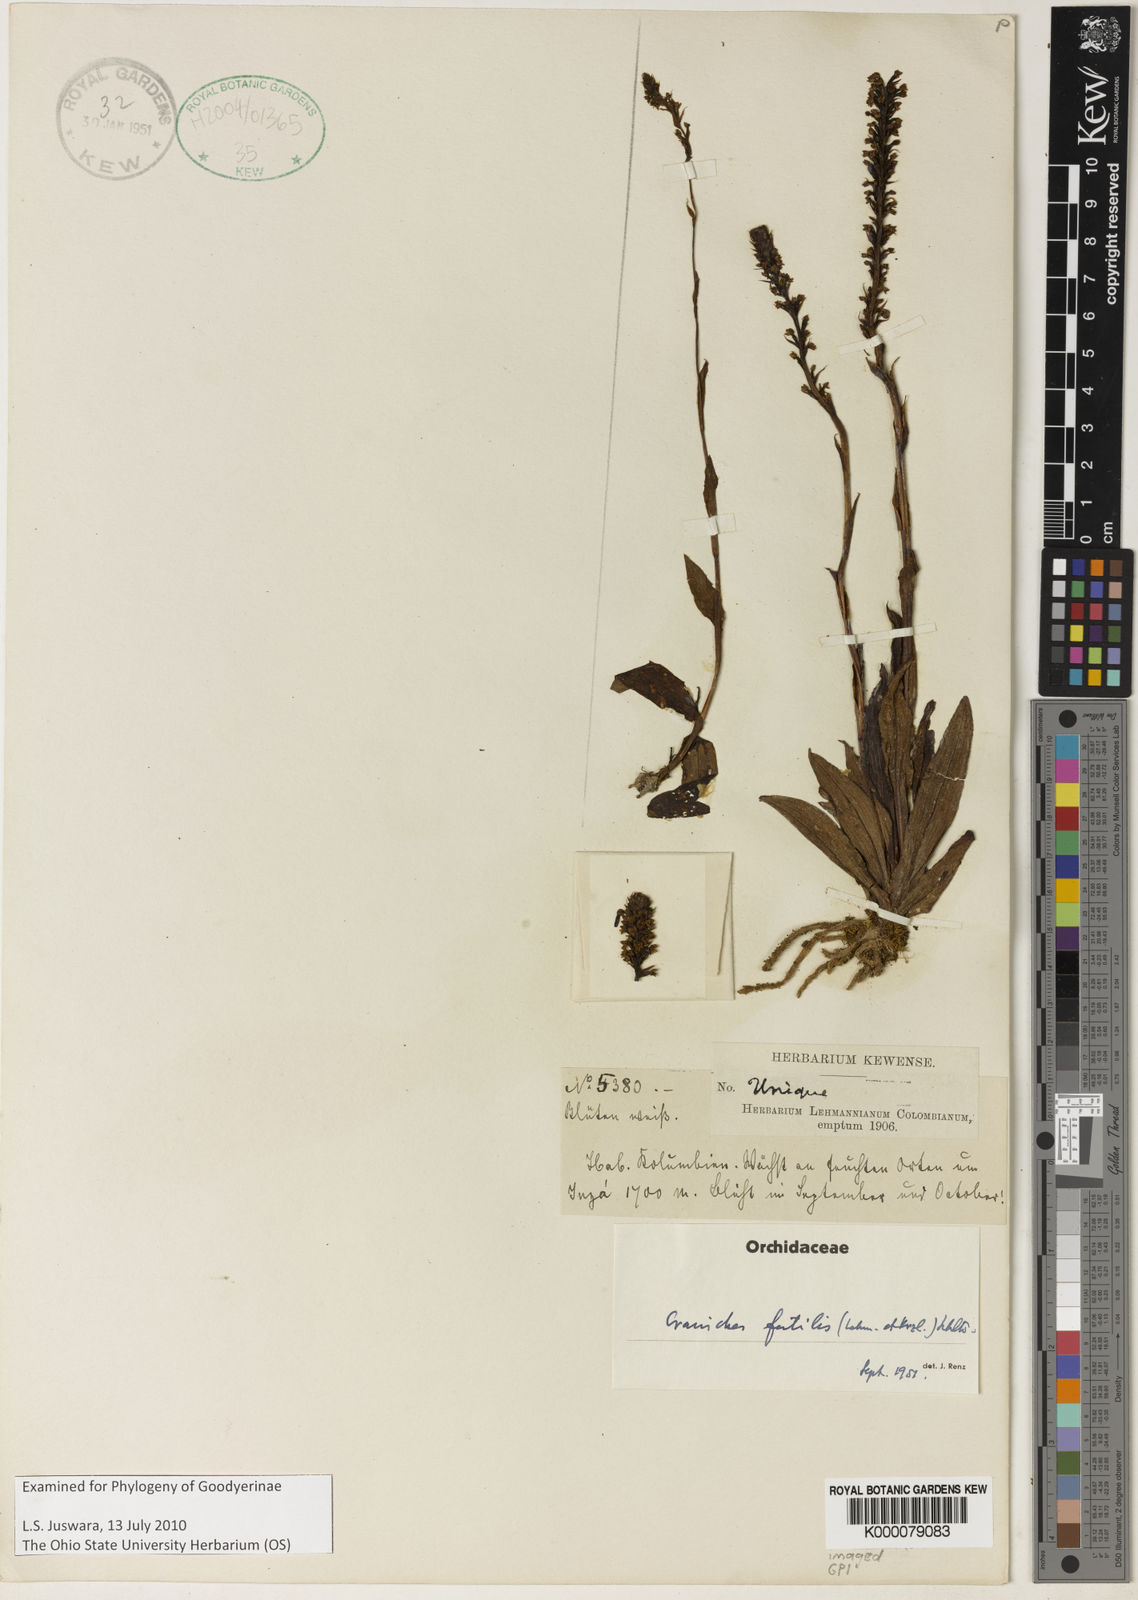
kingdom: Plantae
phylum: Tracheophyta
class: Liliopsida
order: Asparagales
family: Orchidaceae
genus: Ponthieva
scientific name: Ponthieva fertilis
